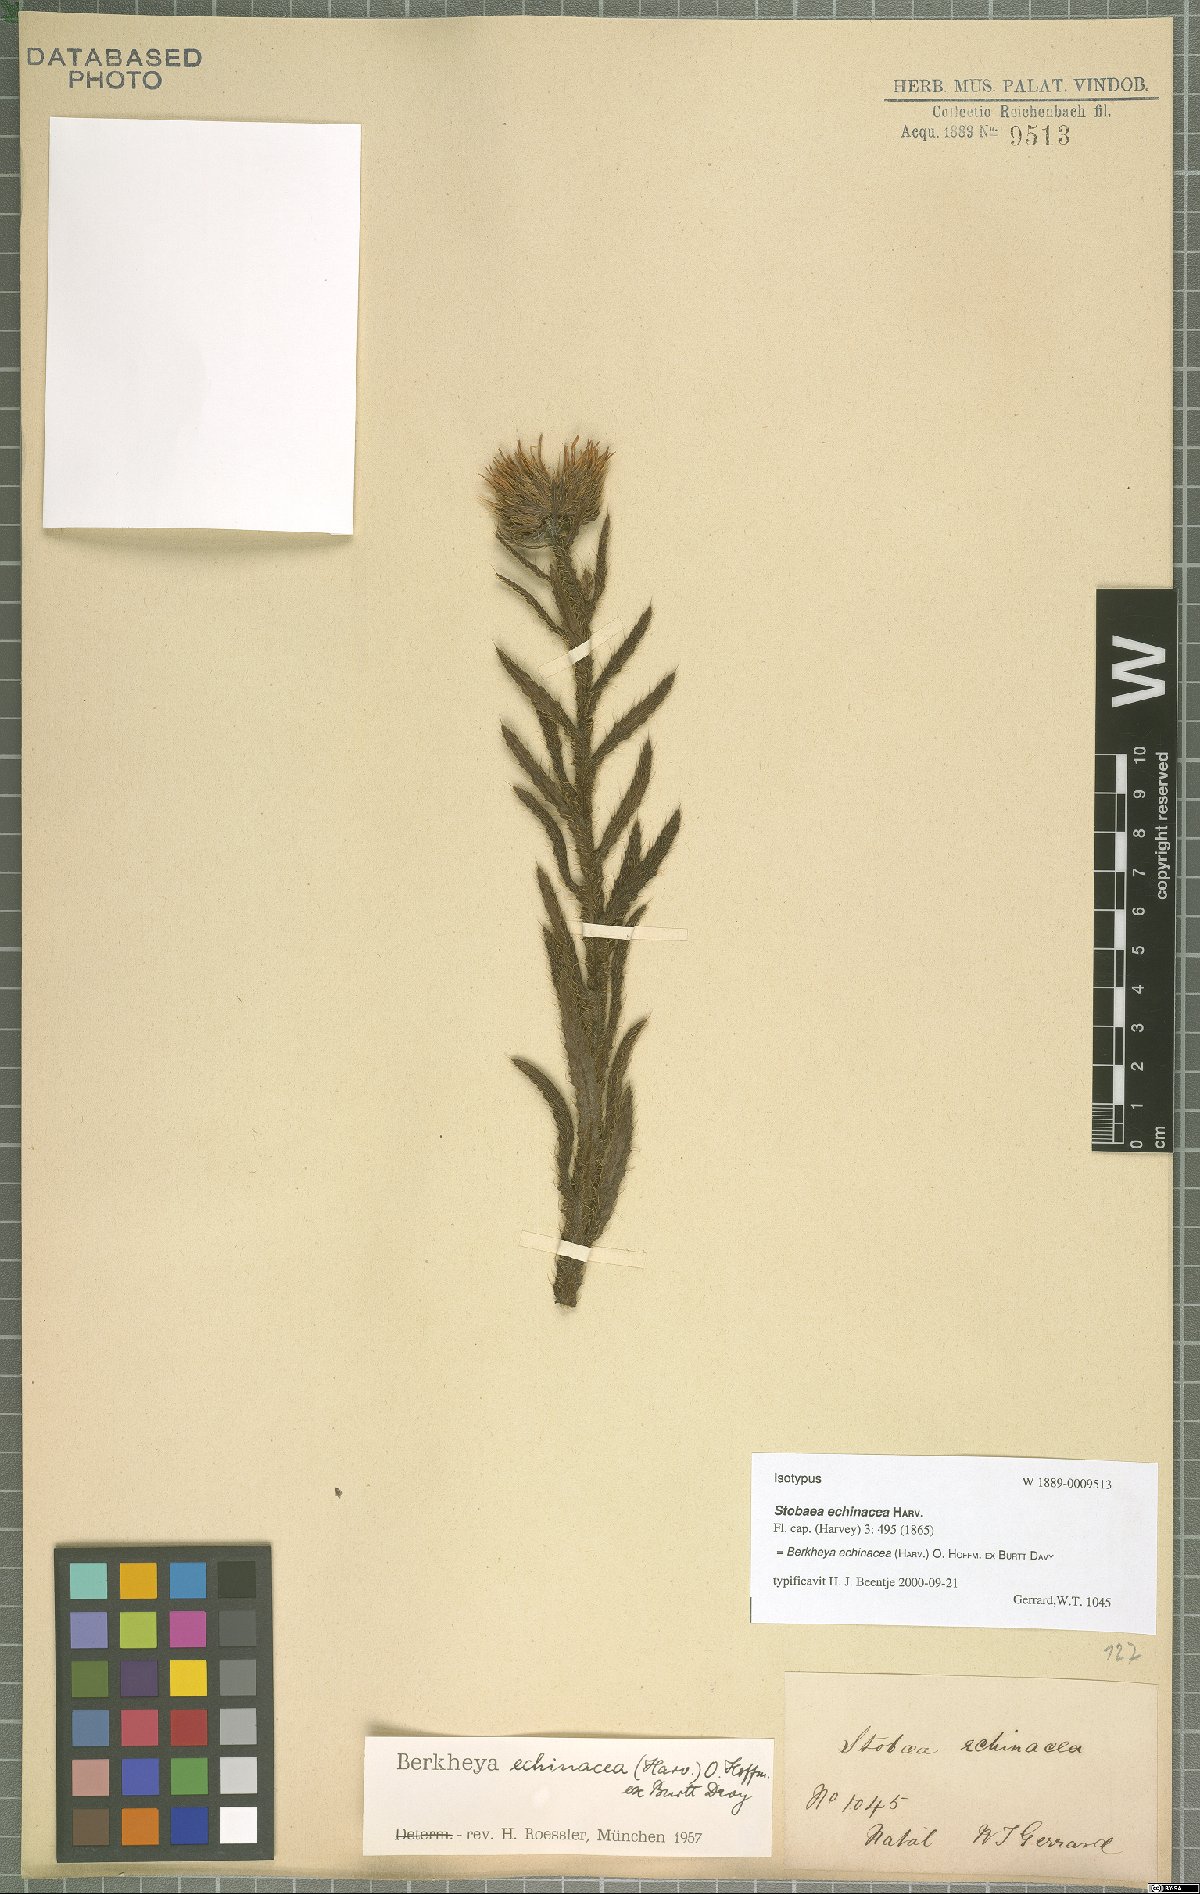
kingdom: Plantae
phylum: Tracheophyta
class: Magnoliopsida
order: Asterales
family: Asteraceae
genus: Berkheya
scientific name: Berkheya echinacea
